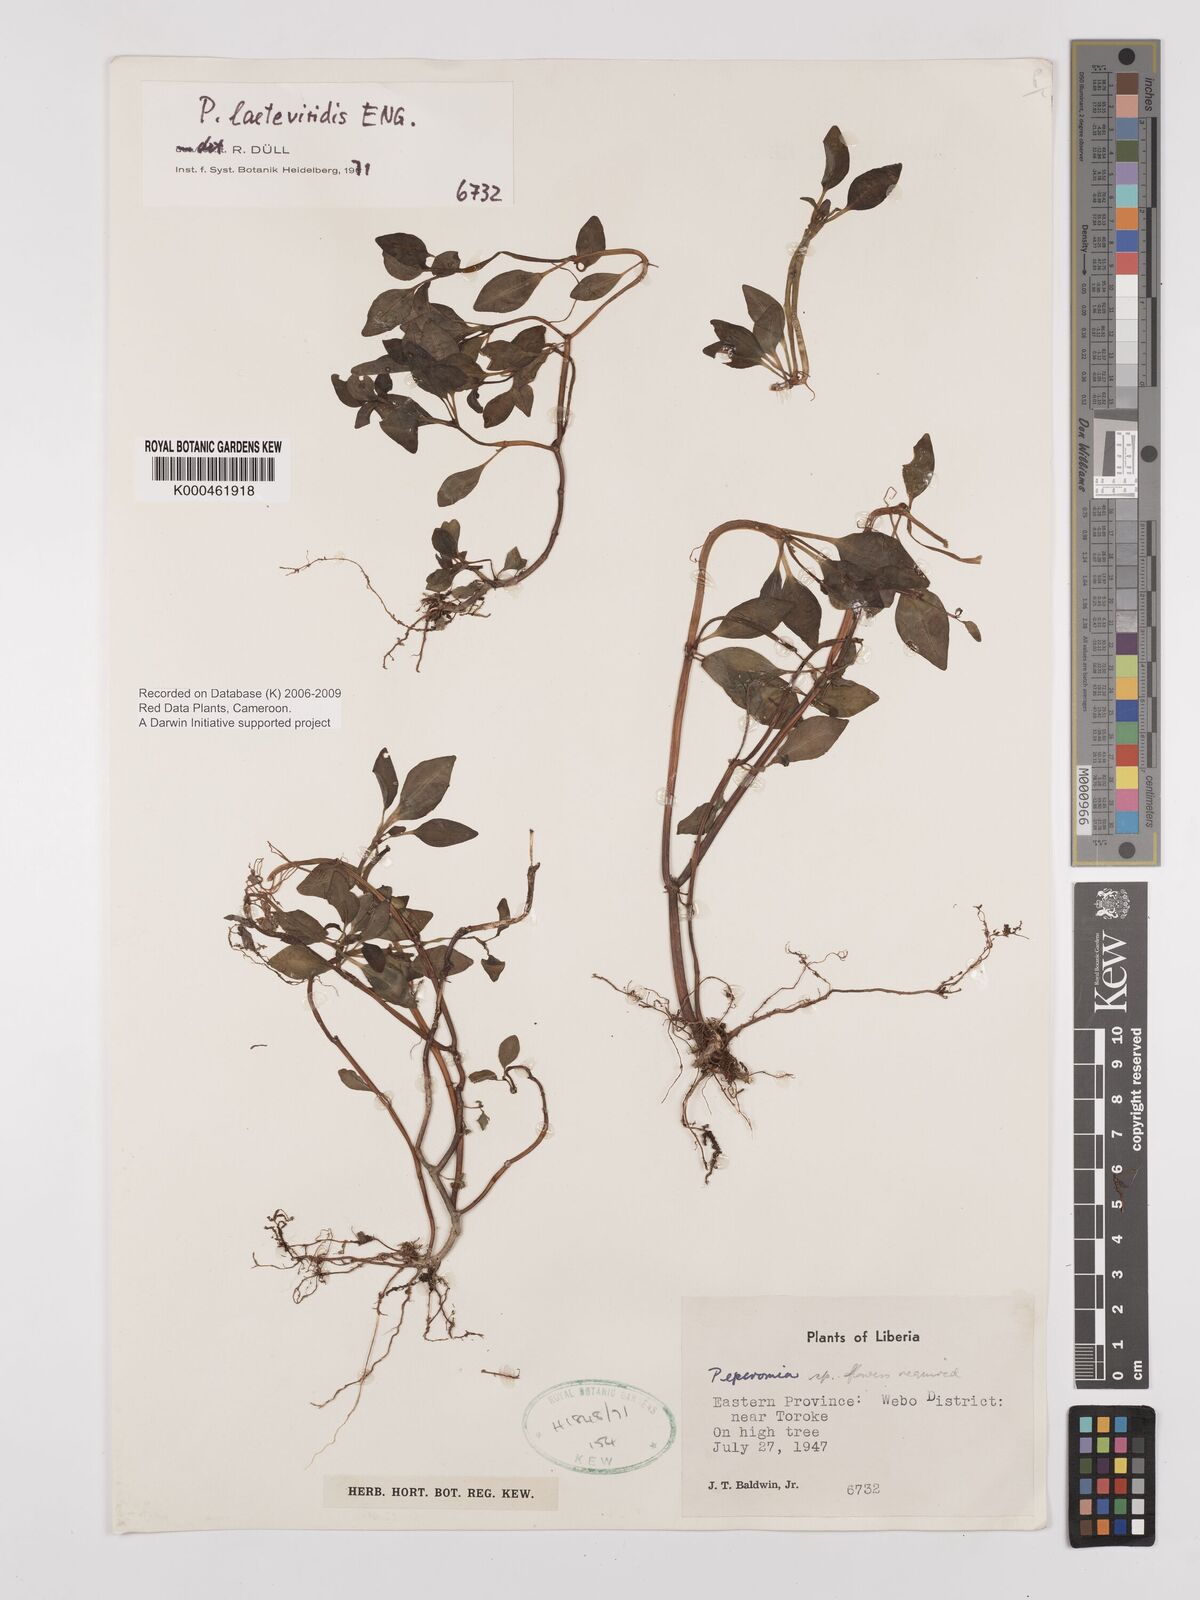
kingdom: Plantae
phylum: Tracheophyta
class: Magnoliopsida
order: Piperales
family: Piperaceae
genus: Peperomia
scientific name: Peperomia laeteviridis
